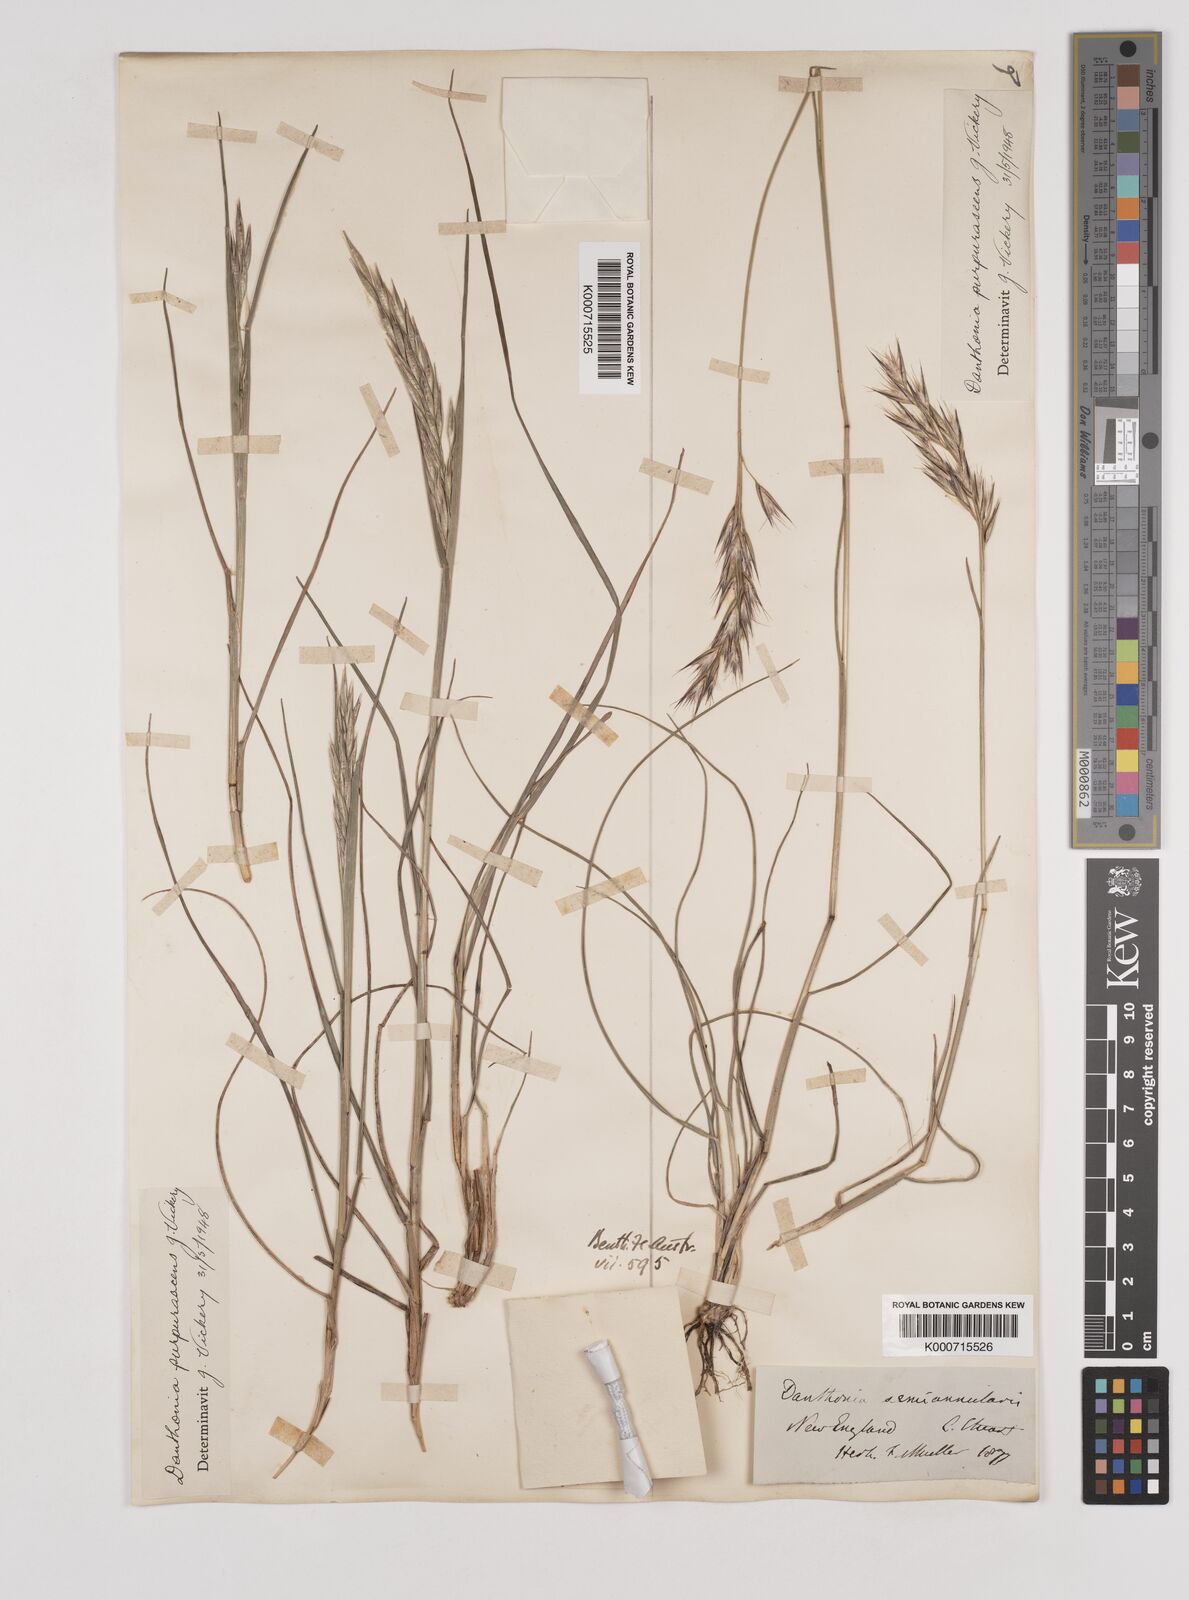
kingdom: Plantae
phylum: Tracheophyta
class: Liliopsida
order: Poales
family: Poaceae
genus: Rytidosperma
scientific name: Rytidosperma tenuius
